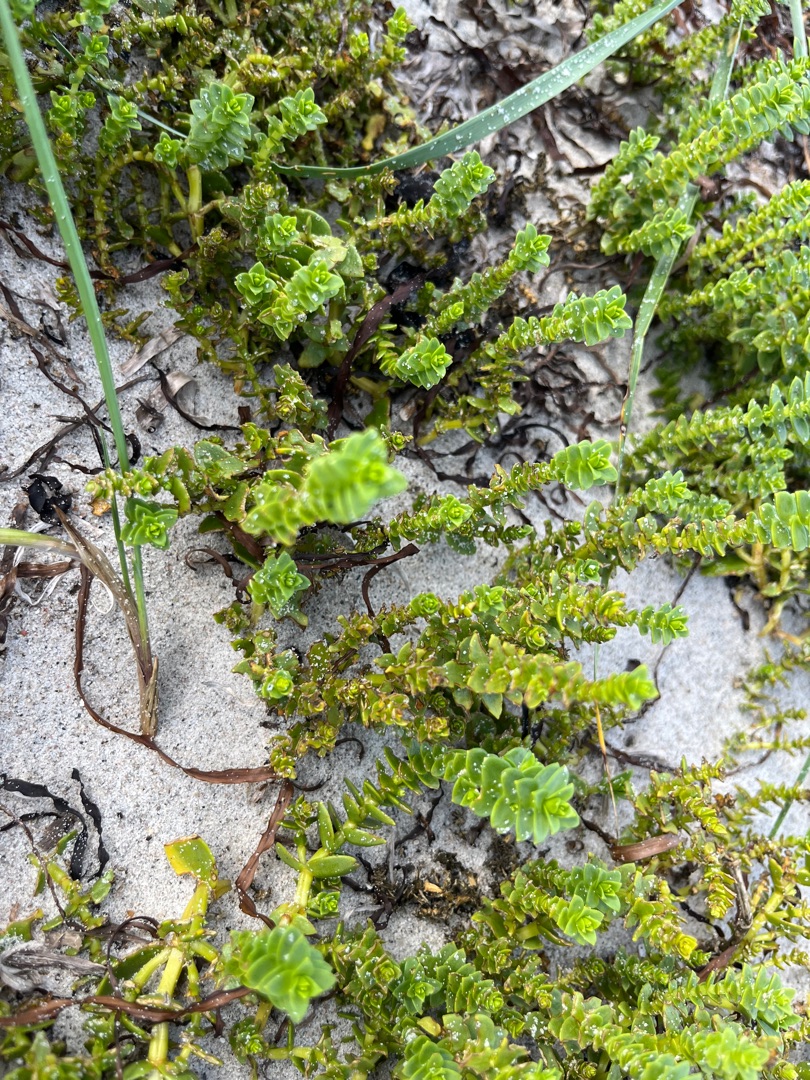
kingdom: Plantae
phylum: Tracheophyta
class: Magnoliopsida
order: Caryophyllales
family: Caryophyllaceae
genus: Honckenya
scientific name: Honckenya peploides
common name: Strandarve
